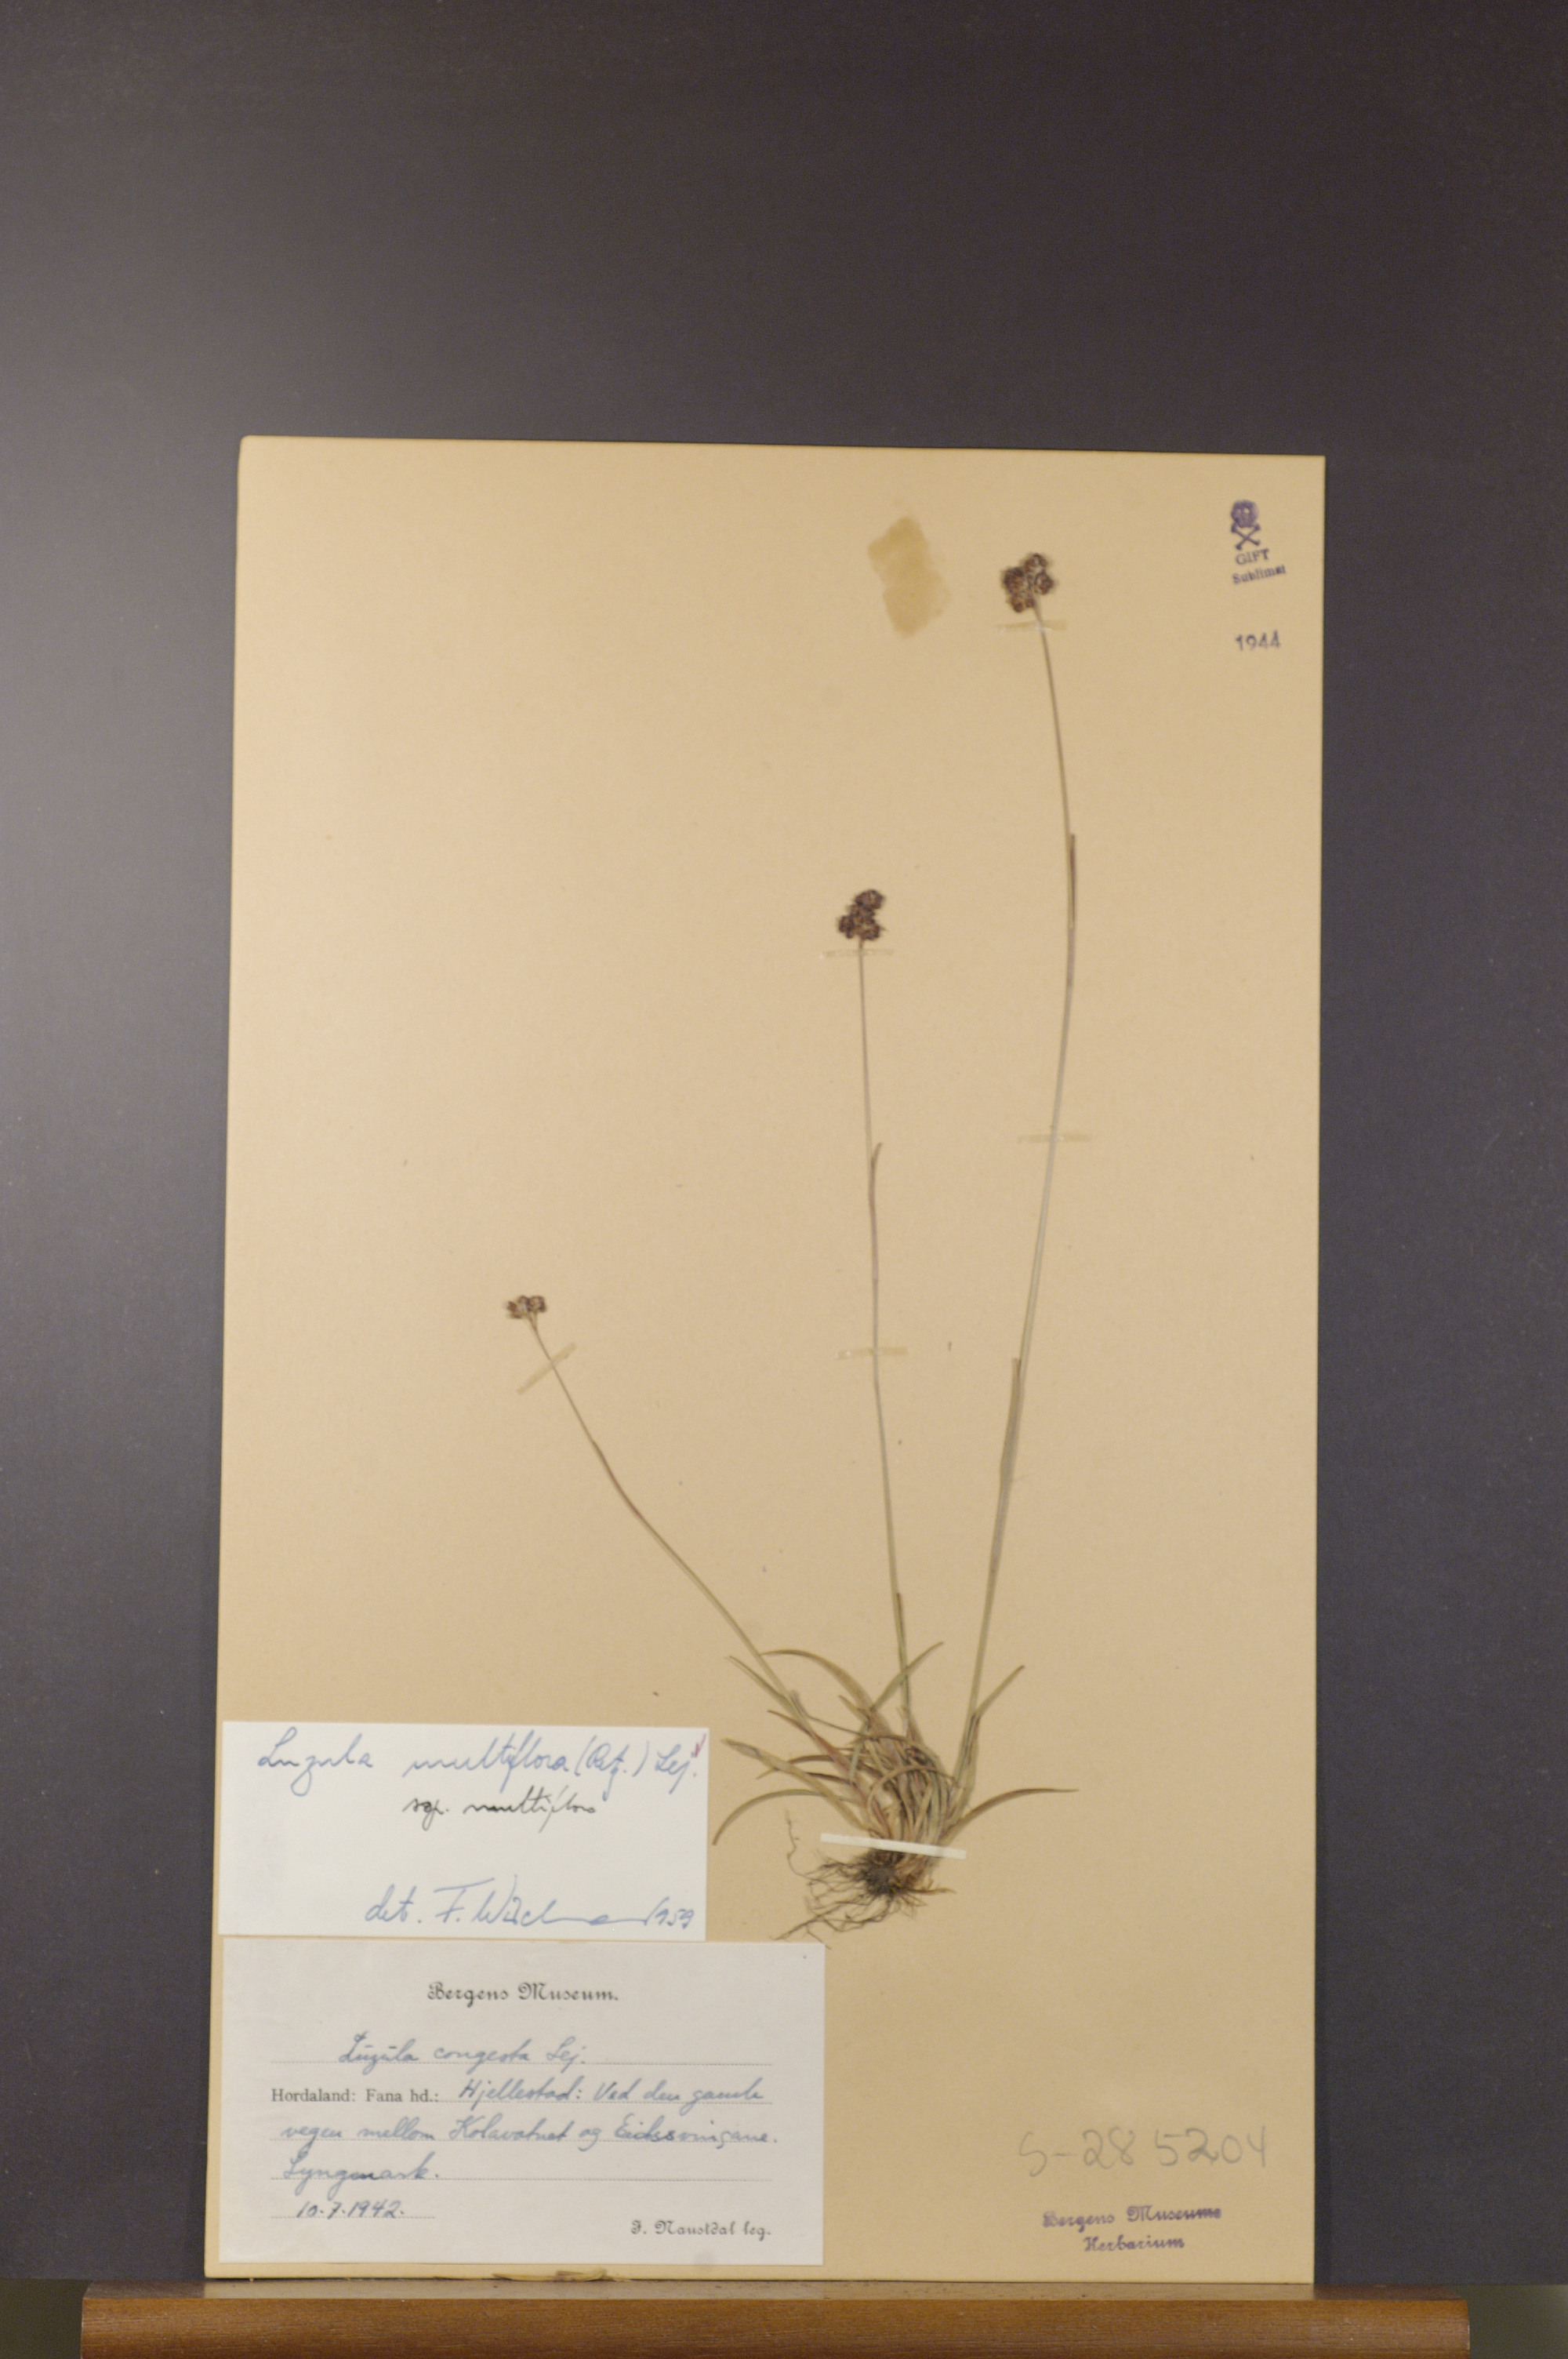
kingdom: Plantae
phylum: Tracheophyta
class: Liliopsida
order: Poales
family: Juncaceae
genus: Luzula
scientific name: Luzula multiflora
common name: Heath wood-rush
